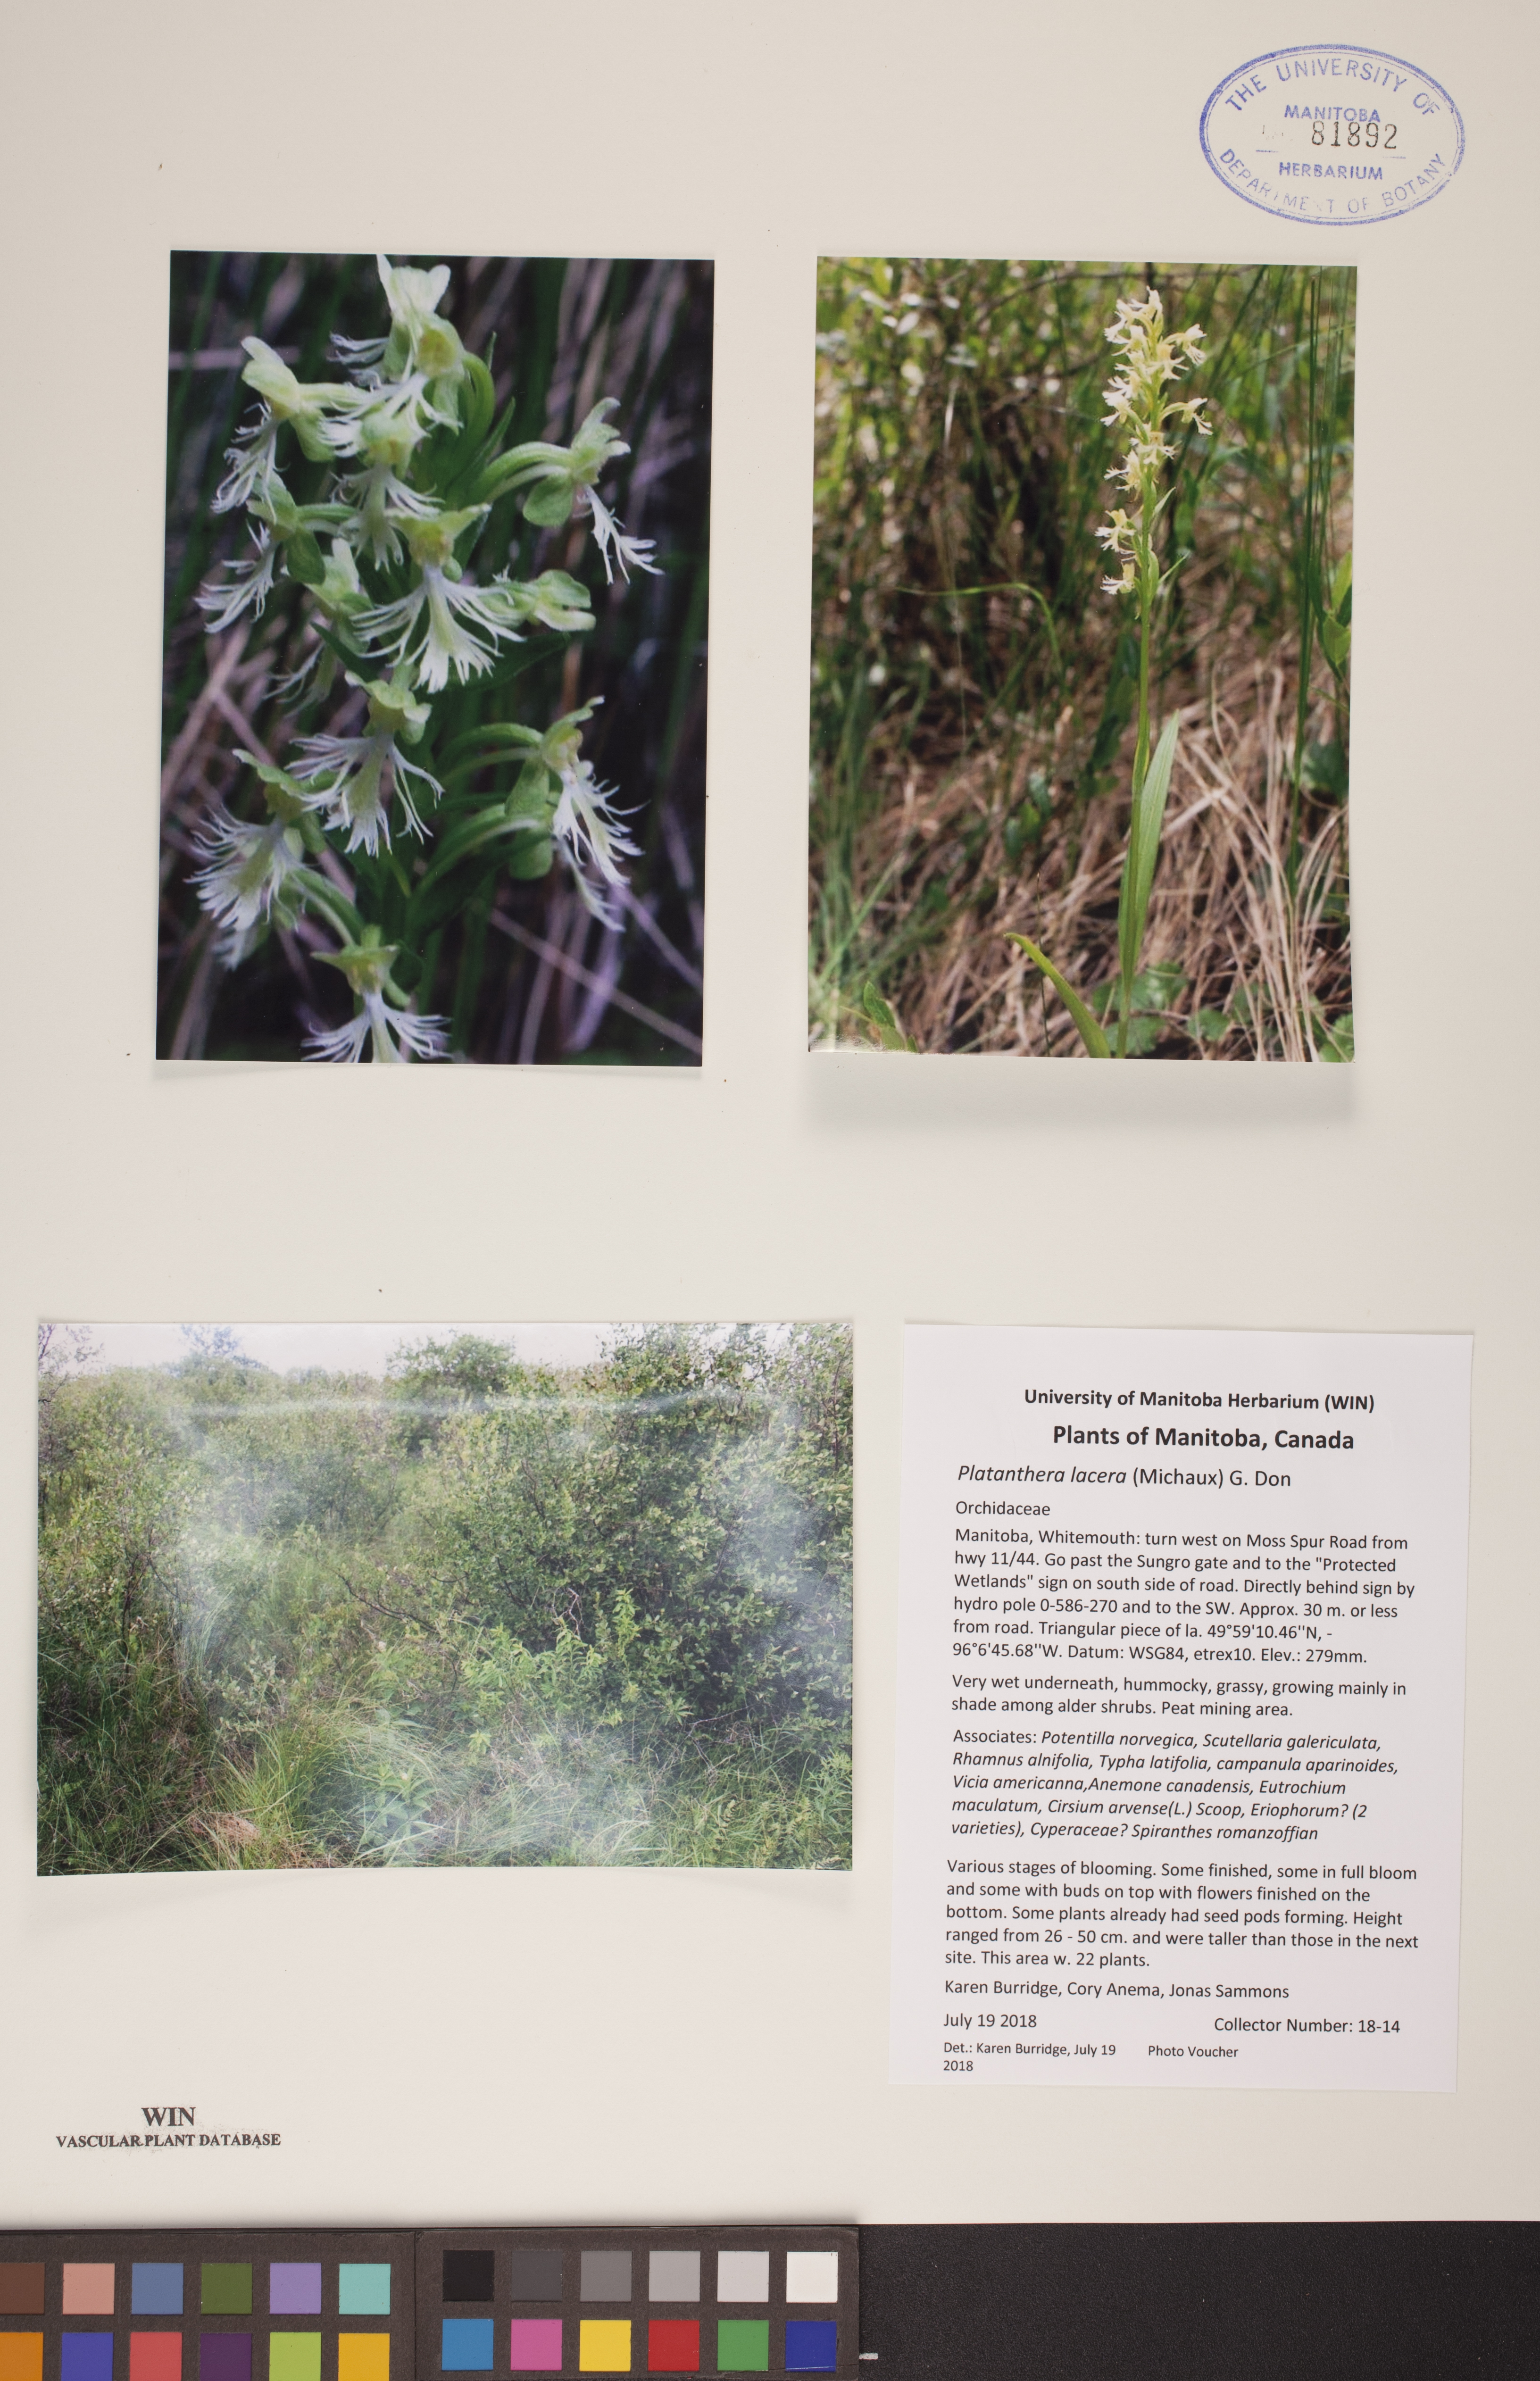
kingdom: Plantae
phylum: Tracheophyta
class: Liliopsida
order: Asparagales
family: Orchidaceae
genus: Platanthera
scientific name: Platanthera lacera
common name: Green fringed orchid
